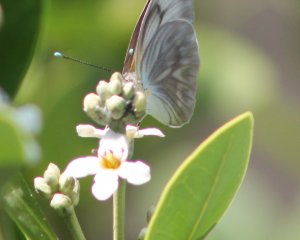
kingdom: Animalia
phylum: Arthropoda
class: Insecta
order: Lepidoptera
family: Pieridae
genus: Ascia
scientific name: Ascia monuste
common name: Great Southern White
